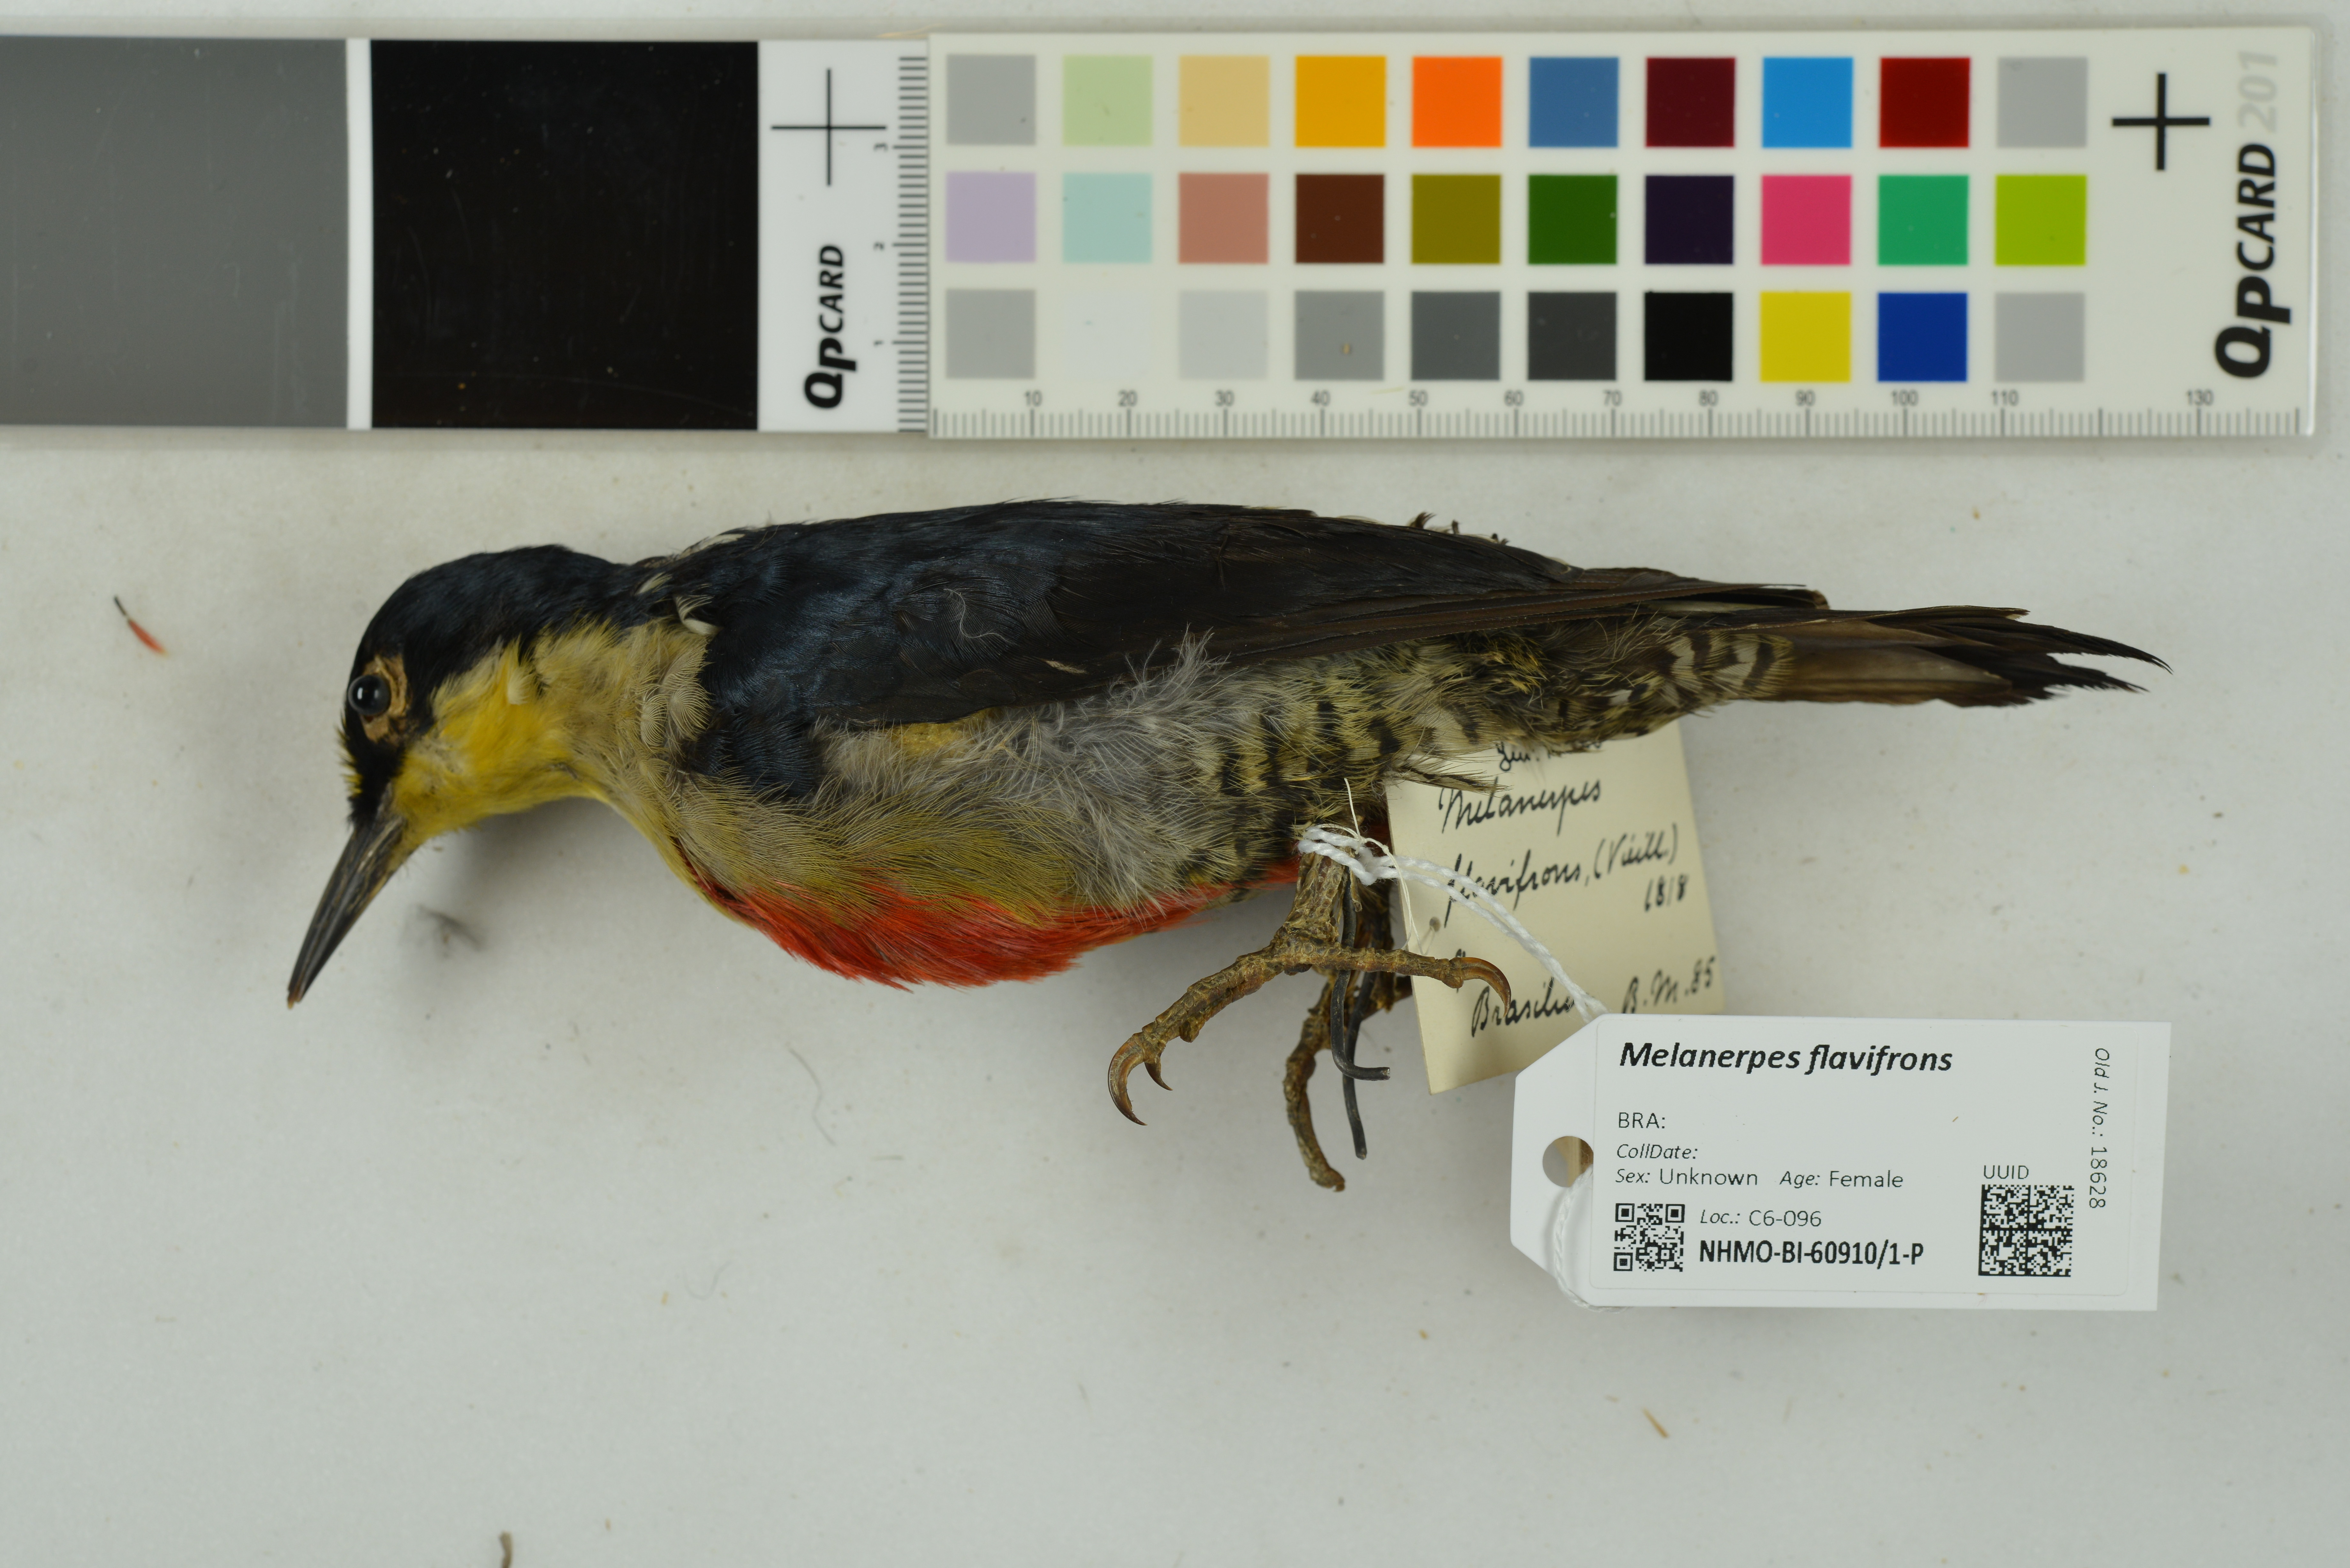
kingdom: Animalia
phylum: Chordata
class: Aves
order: Piciformes
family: Picidae
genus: Melanerpes
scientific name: Melanerpes flavifrons
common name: Yellow-fronted woodpecker
